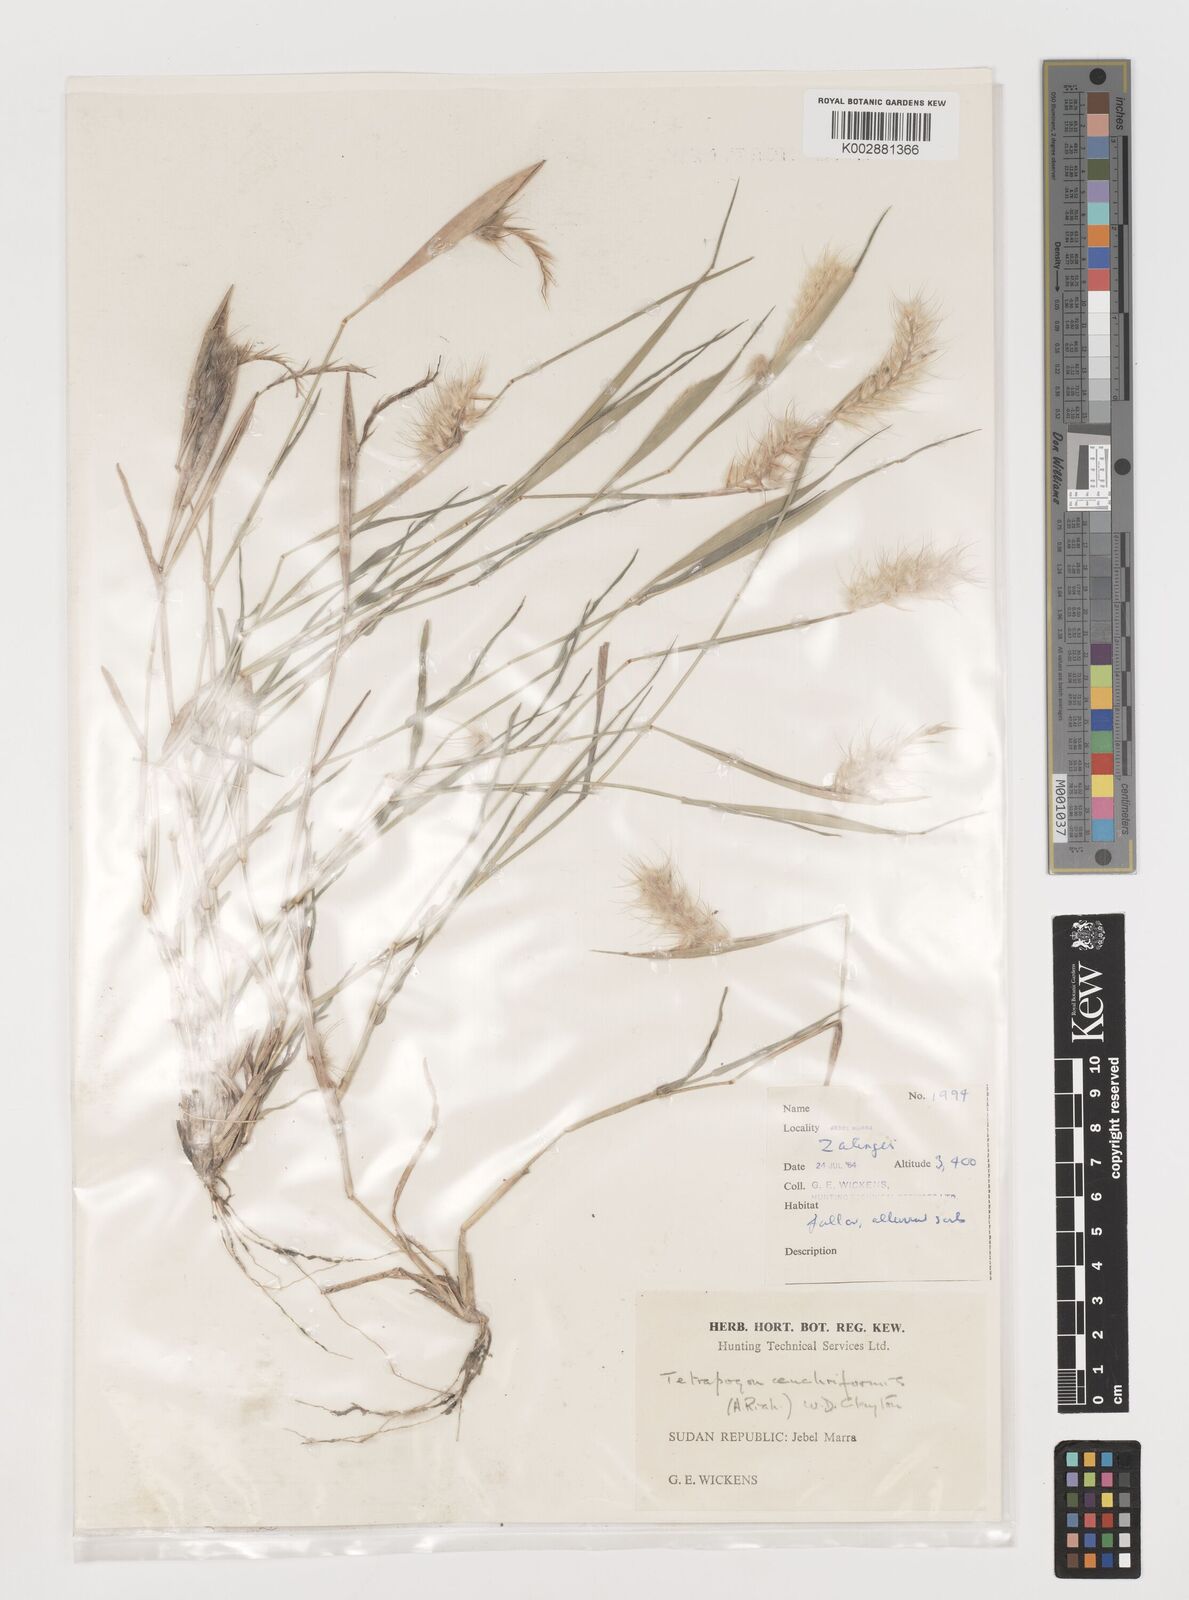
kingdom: Plantae
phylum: Tracheophyta
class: Liliopsida
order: Poales
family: Poaceae
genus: Tetrapogon
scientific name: Tetrapogon cenchriformis
